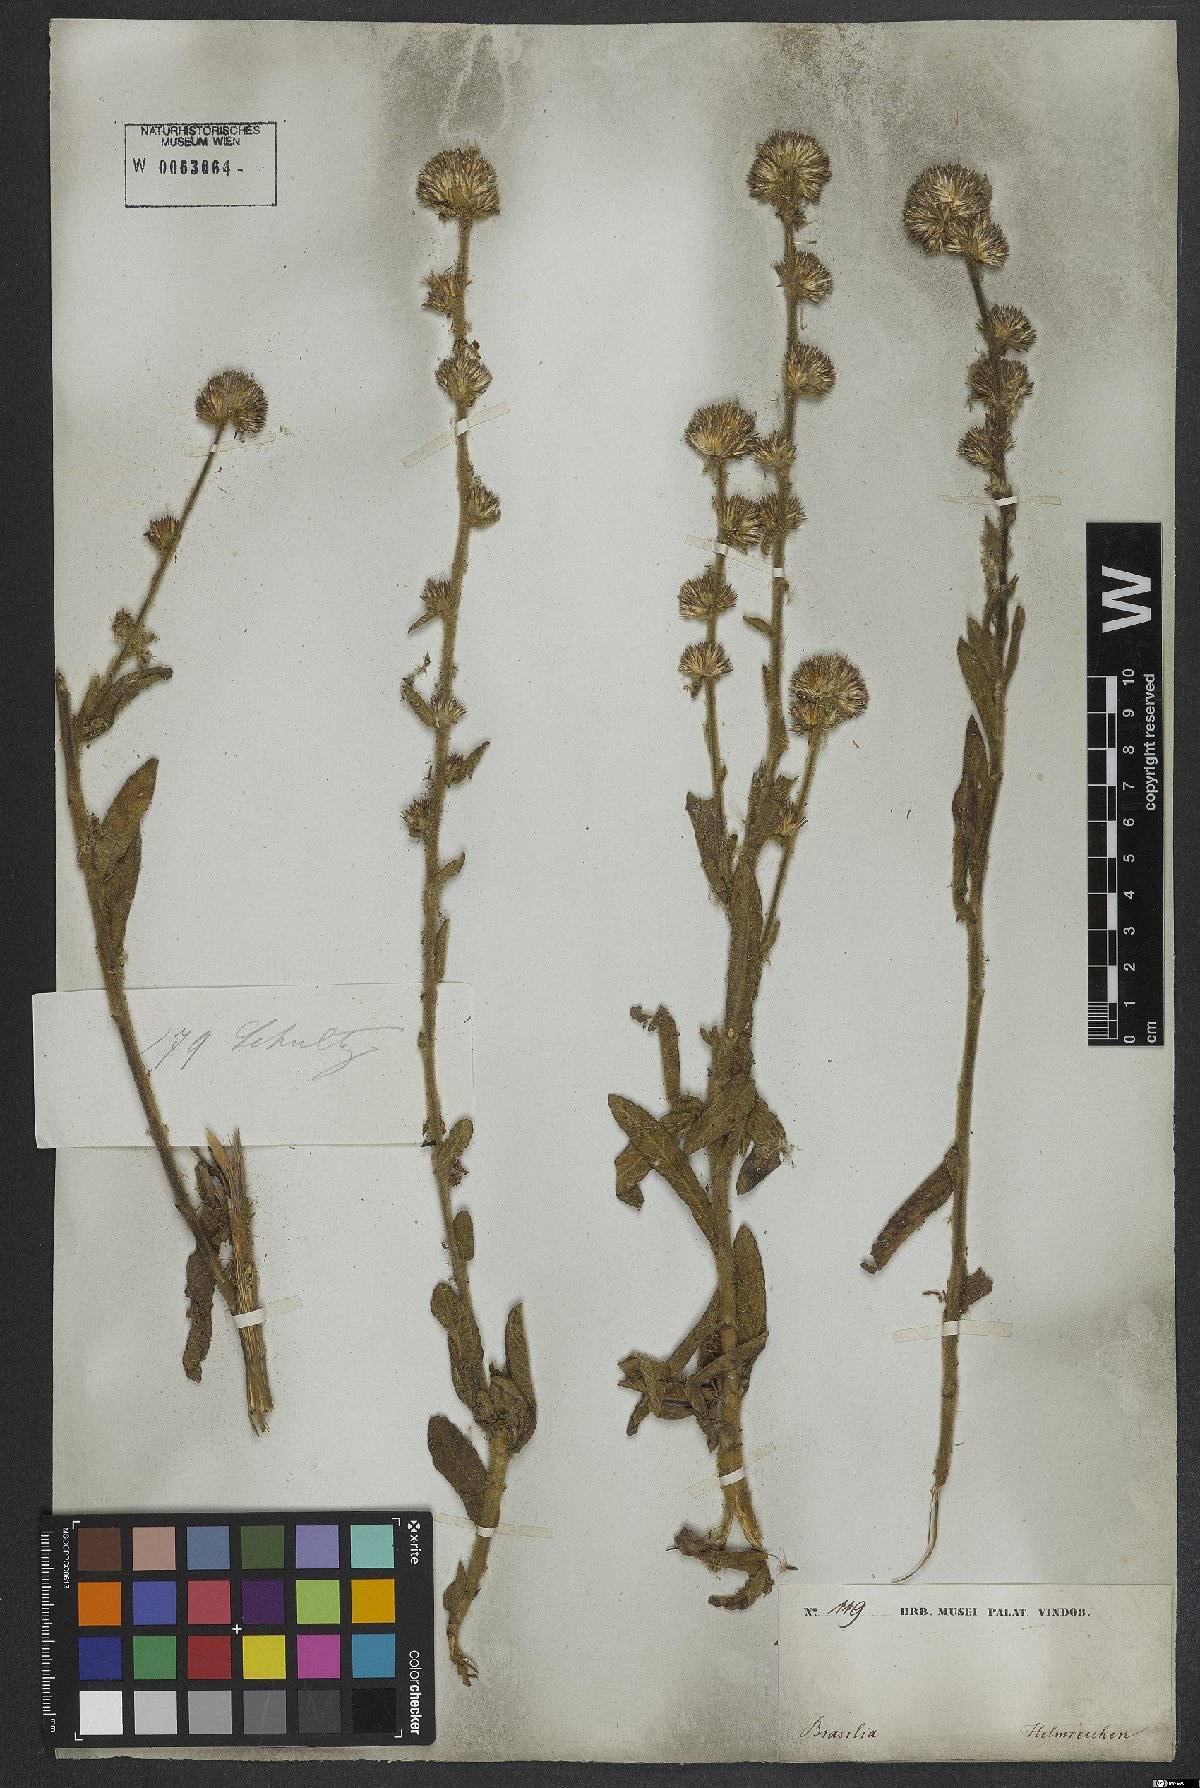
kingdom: Plantae
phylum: Tracheophyta
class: Magnoliopsida
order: Asterales
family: Asteraceae
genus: Elephantopus
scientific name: Elephantopus biflorus
